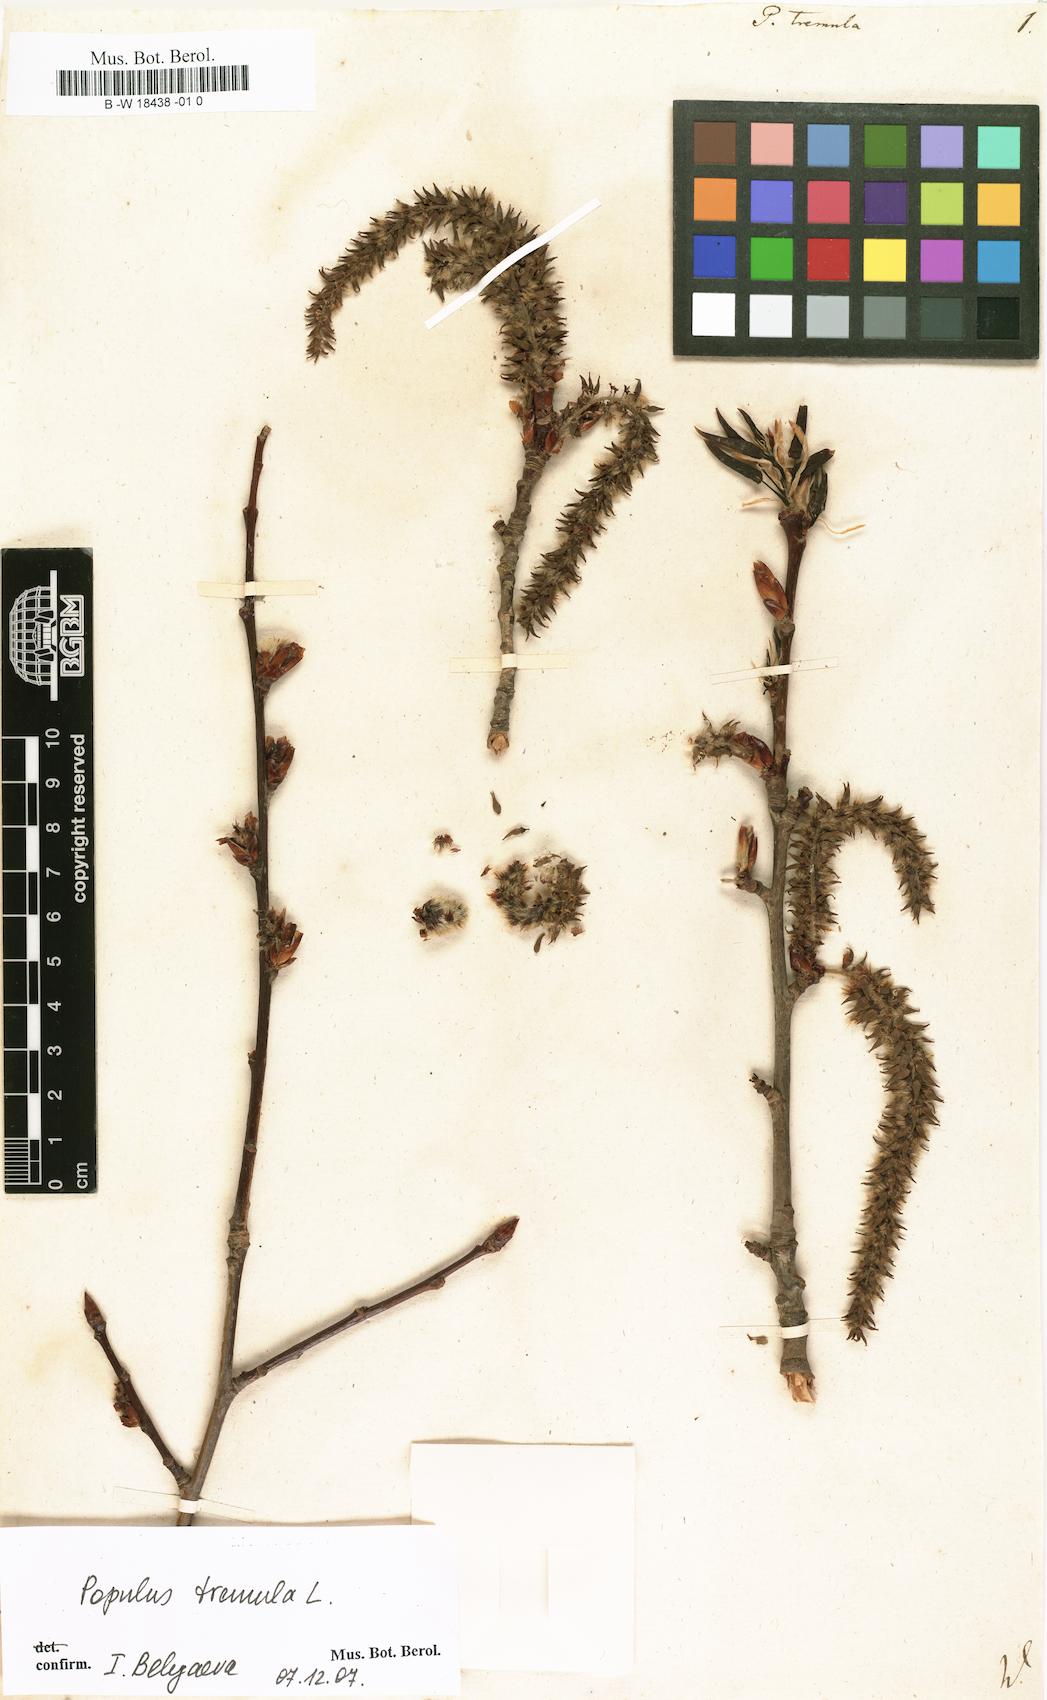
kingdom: Plantae
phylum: Tracheophyta
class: Magnoliopsida
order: Malpighiales
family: Salicaceae
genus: Populus
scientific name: Populus tremula
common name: European aspen
